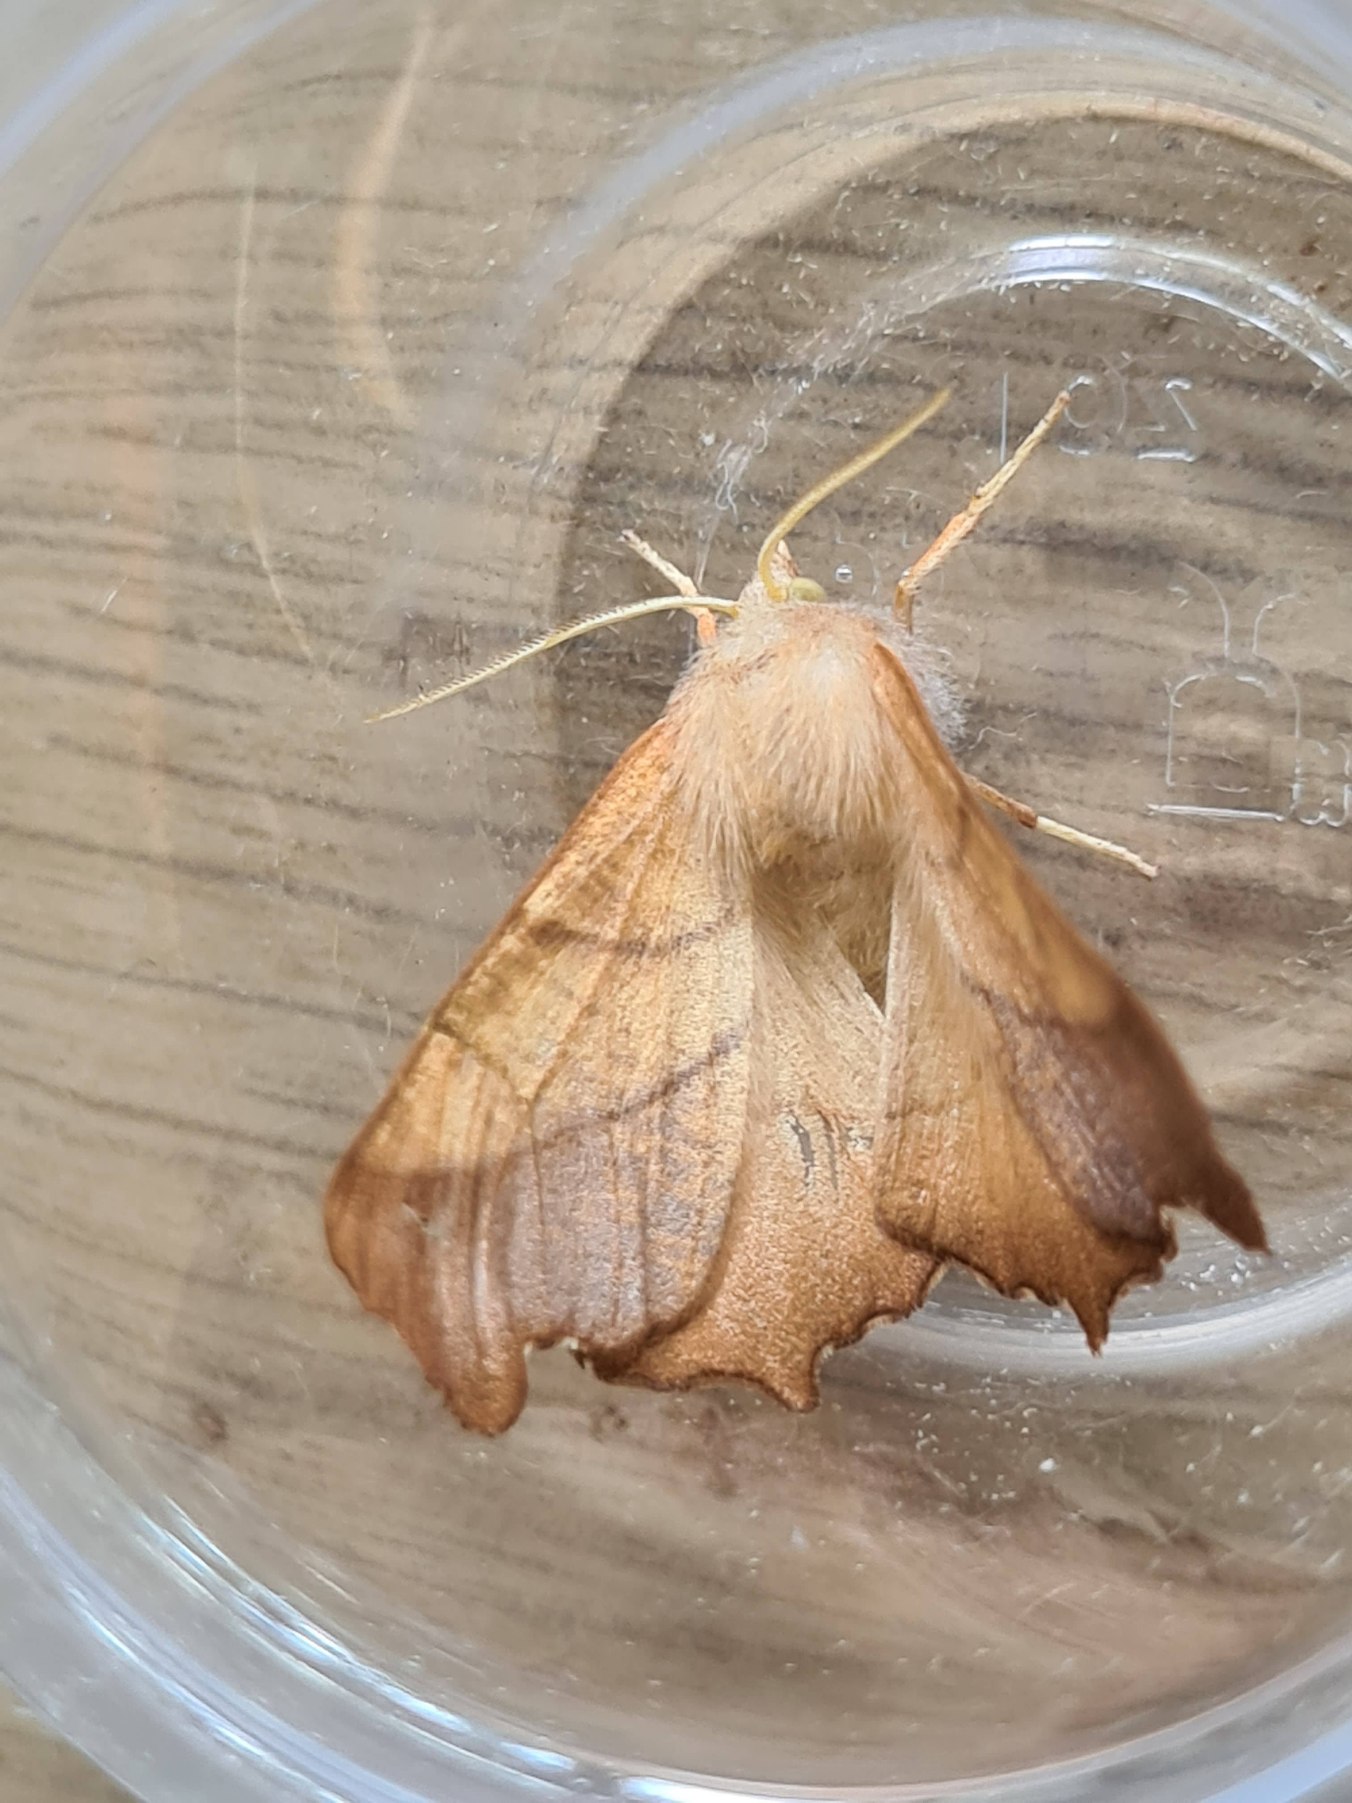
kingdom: Animalia
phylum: Arthropoda
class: Insecta
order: Lepidoptera
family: Geometridae
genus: Ennomos
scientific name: Ennomos fuscantaria
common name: Asketandmåler
